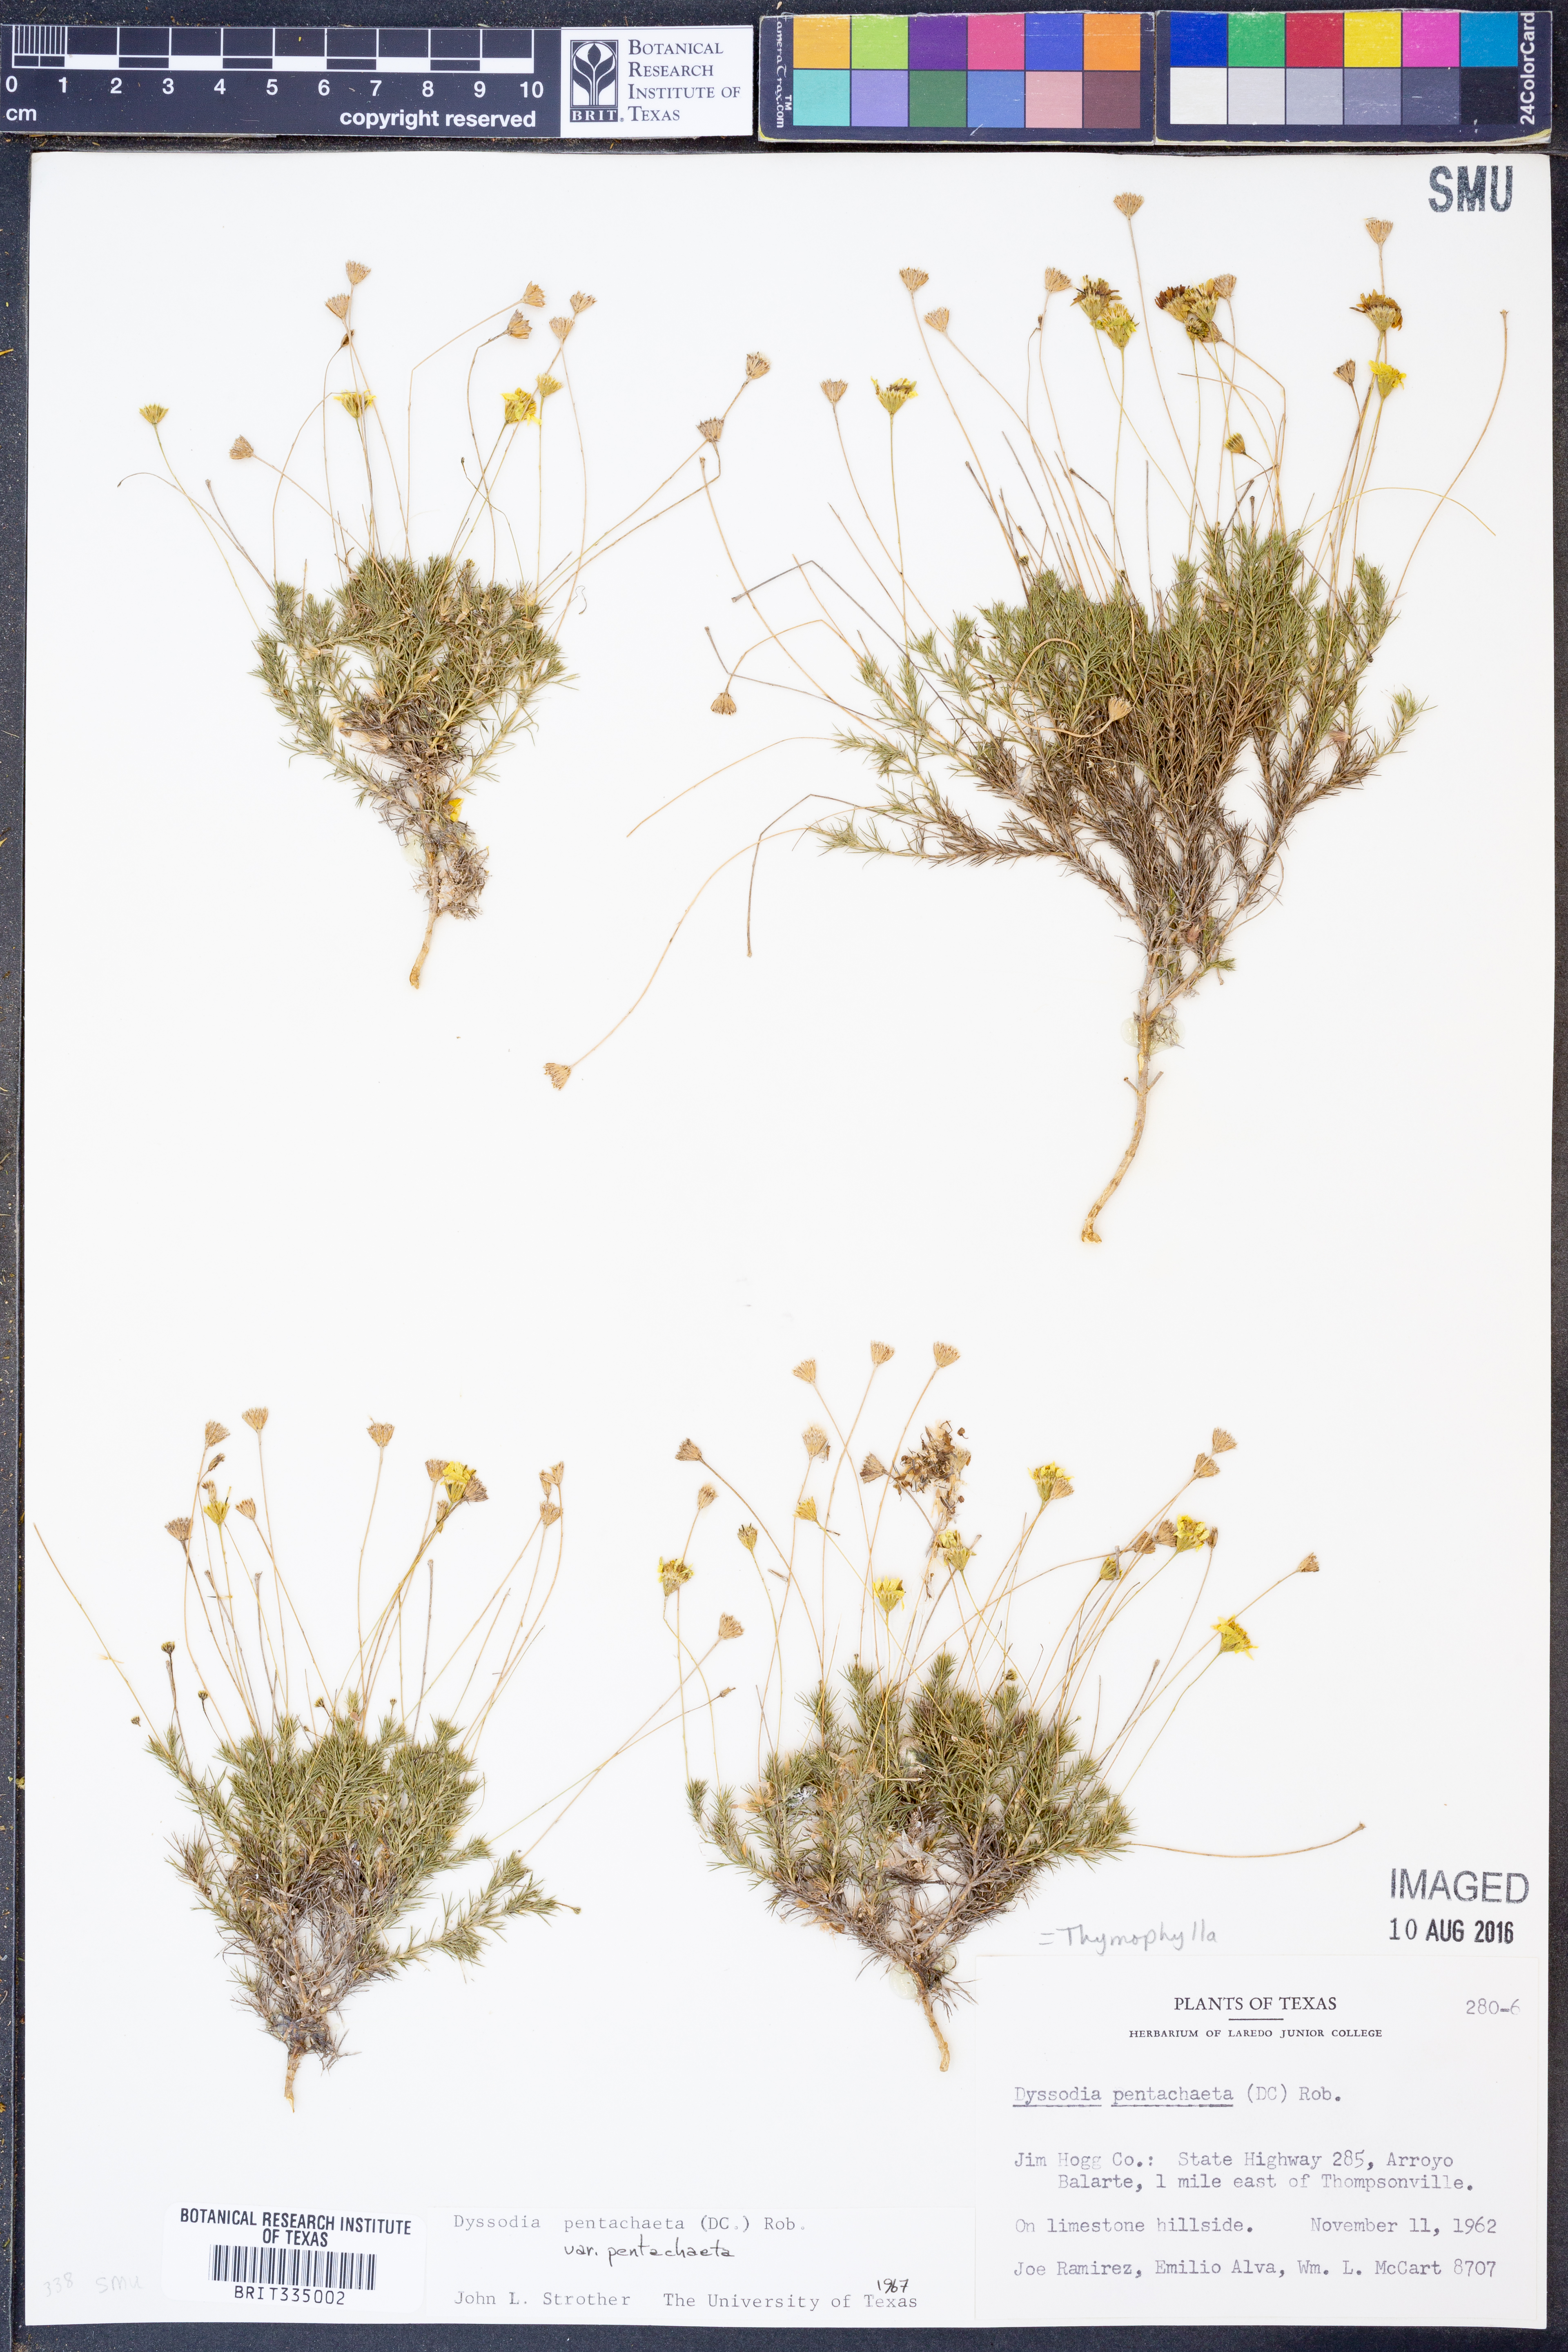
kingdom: Plantae
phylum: Tracheophyta
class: Magnoliopsida
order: Asterales
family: Asteraceae
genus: Thymophylla
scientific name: Thymophylla pentachaeta
